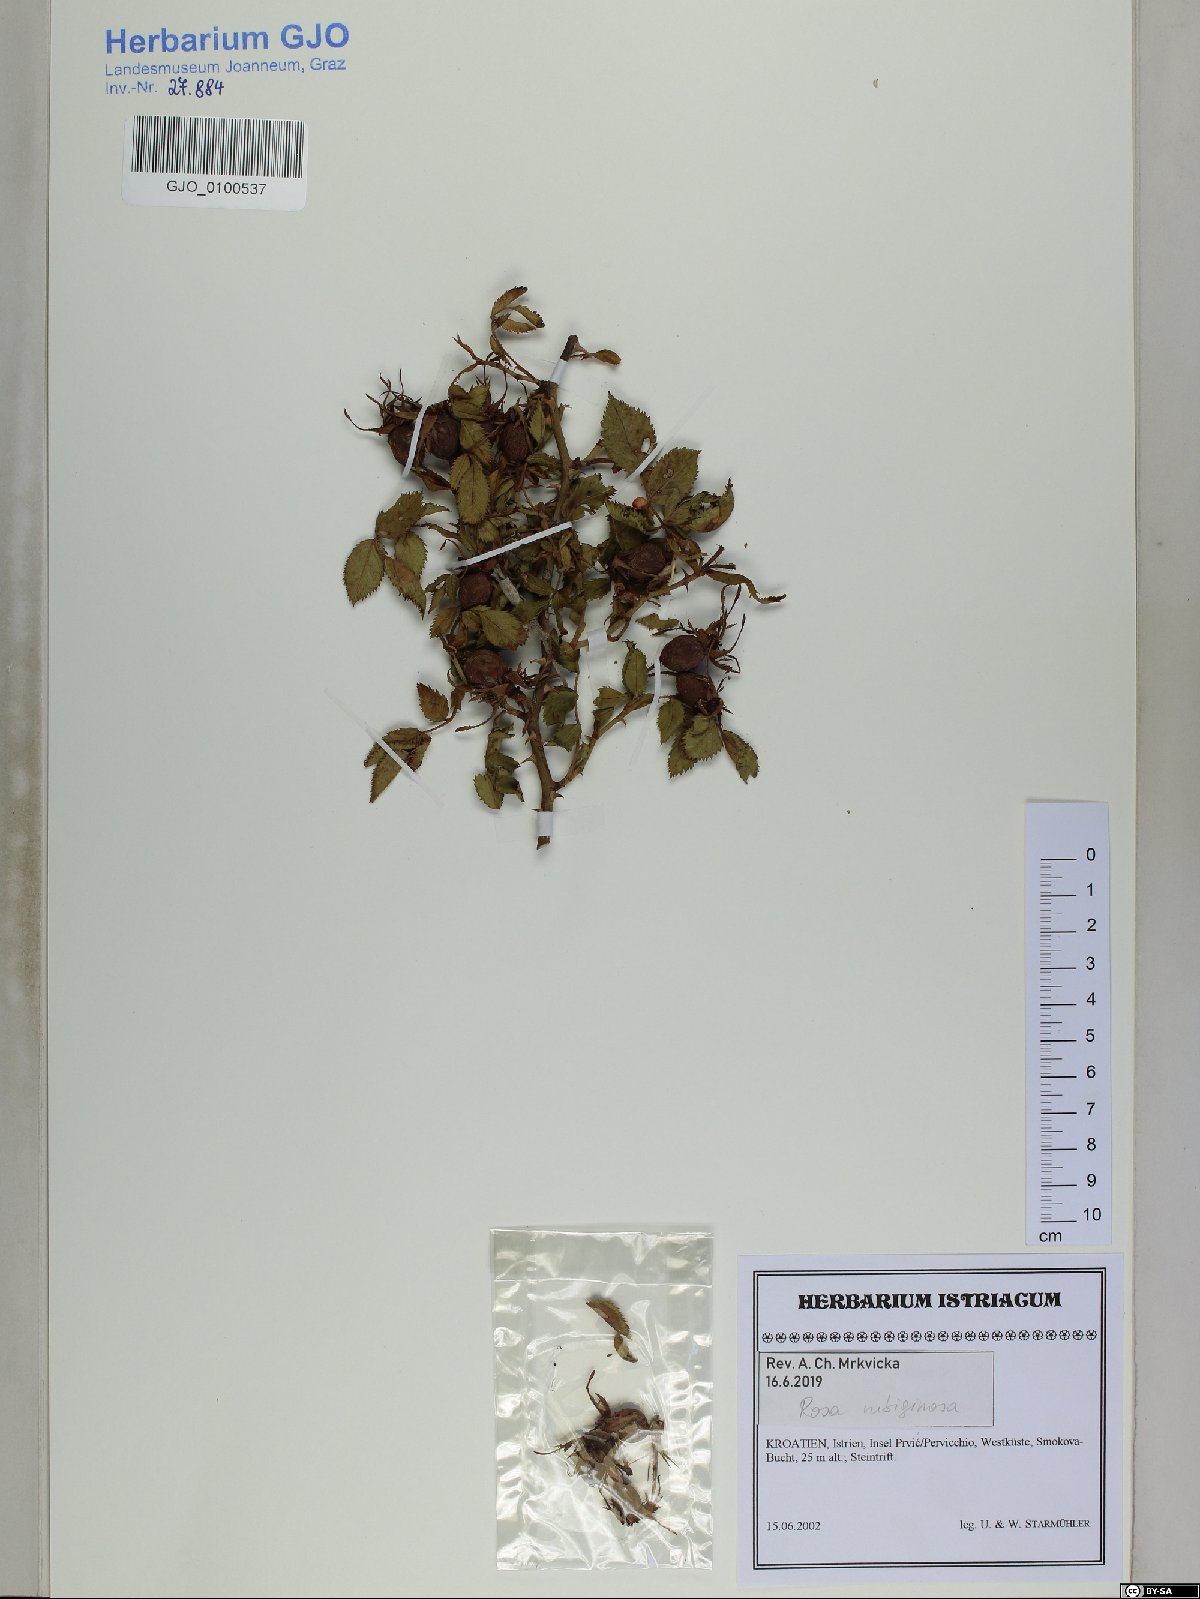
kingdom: Plantae
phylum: Tracheophyta
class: Magnoliopsida
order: Rosales
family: Rosaceae
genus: Rosa
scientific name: Rosa rubiginosa
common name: Sweet-briar
